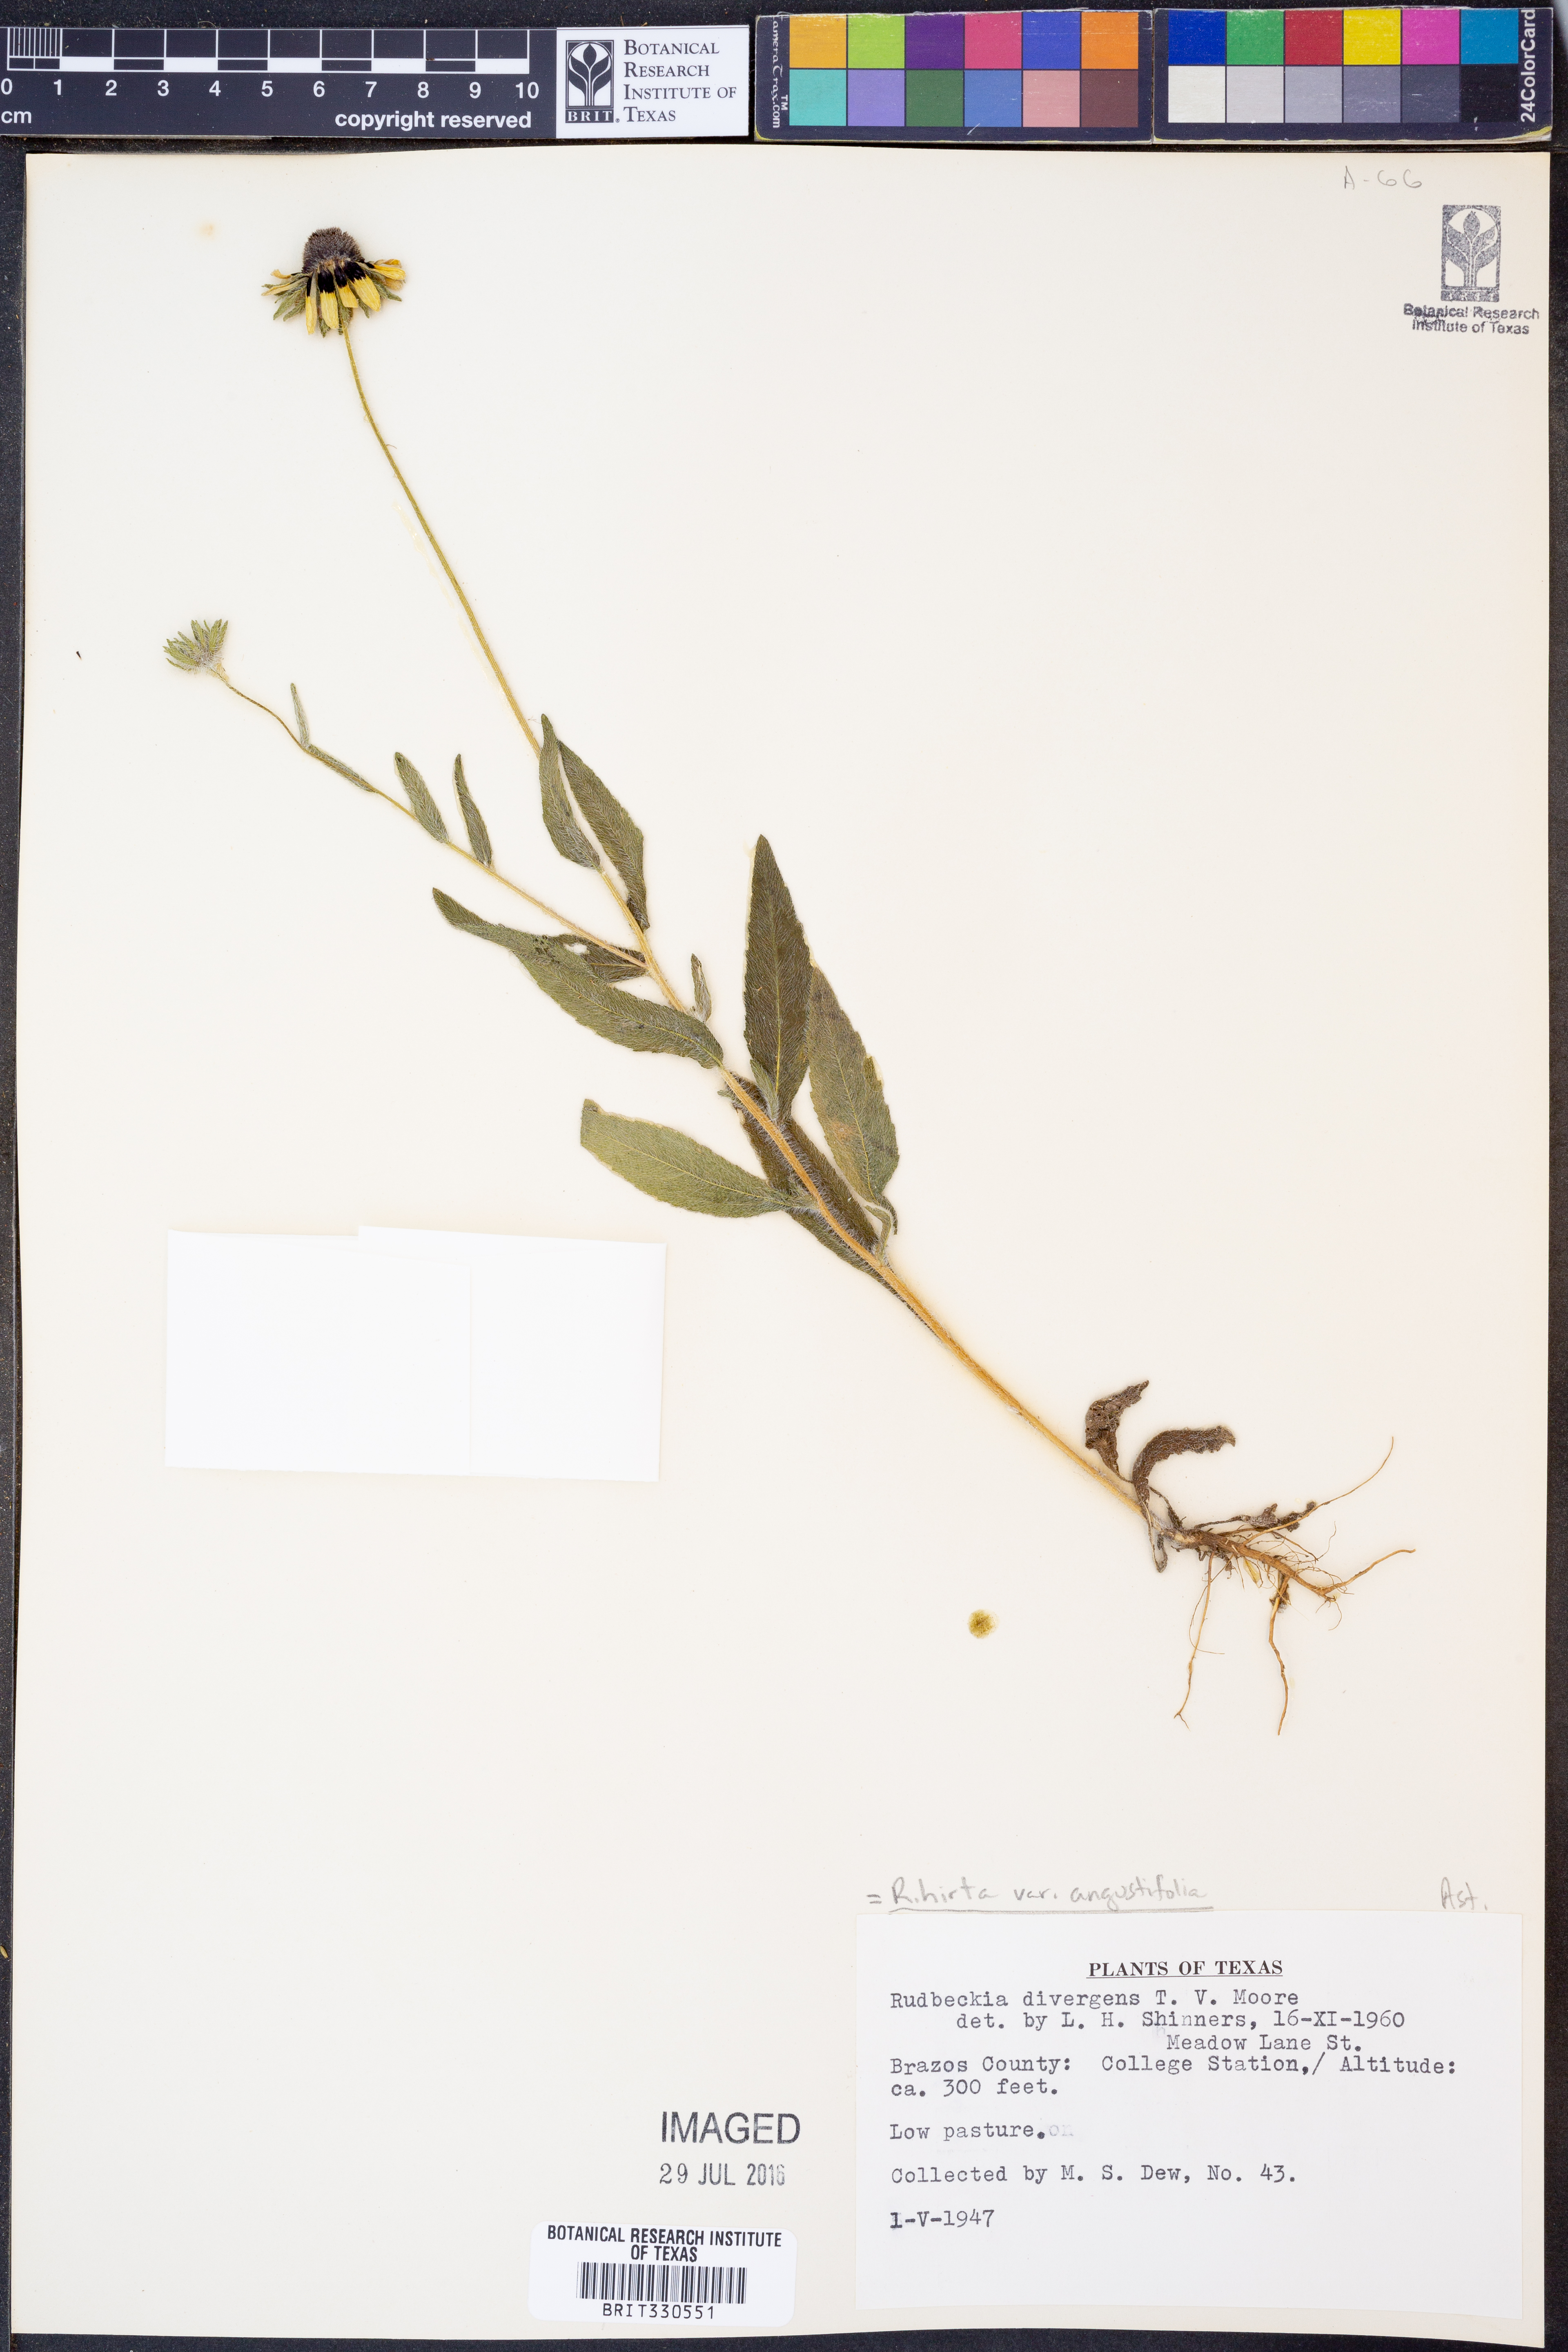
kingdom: Plantae
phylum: Tracheophyta
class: Magnoliopsida
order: Asterales
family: Asteraceae
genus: Rudbeckia
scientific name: Rudbeckia hirta
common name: Black-eyed-susan
